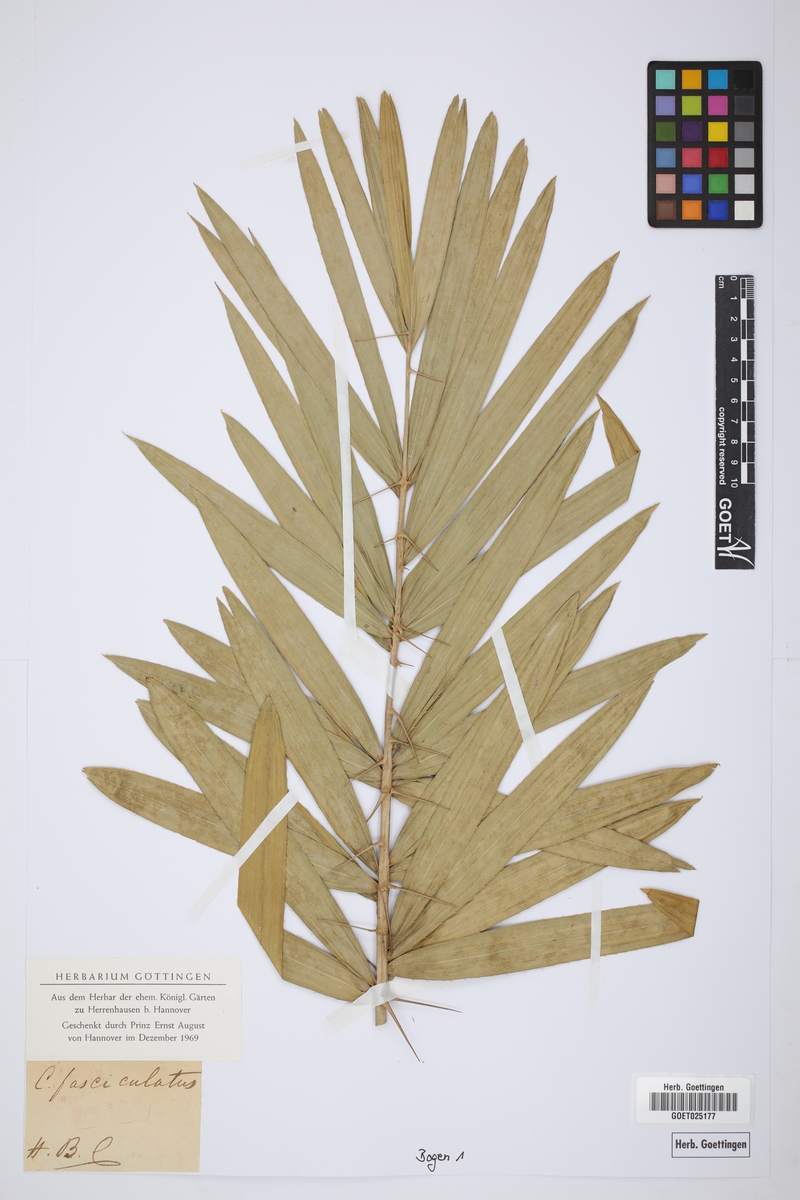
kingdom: Plantae
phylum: Tracheophyta
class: Liliopsida
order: Arecales
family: Arecaceae
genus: Calamus
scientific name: Calamus viminalis
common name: Osier-like rattan palm
